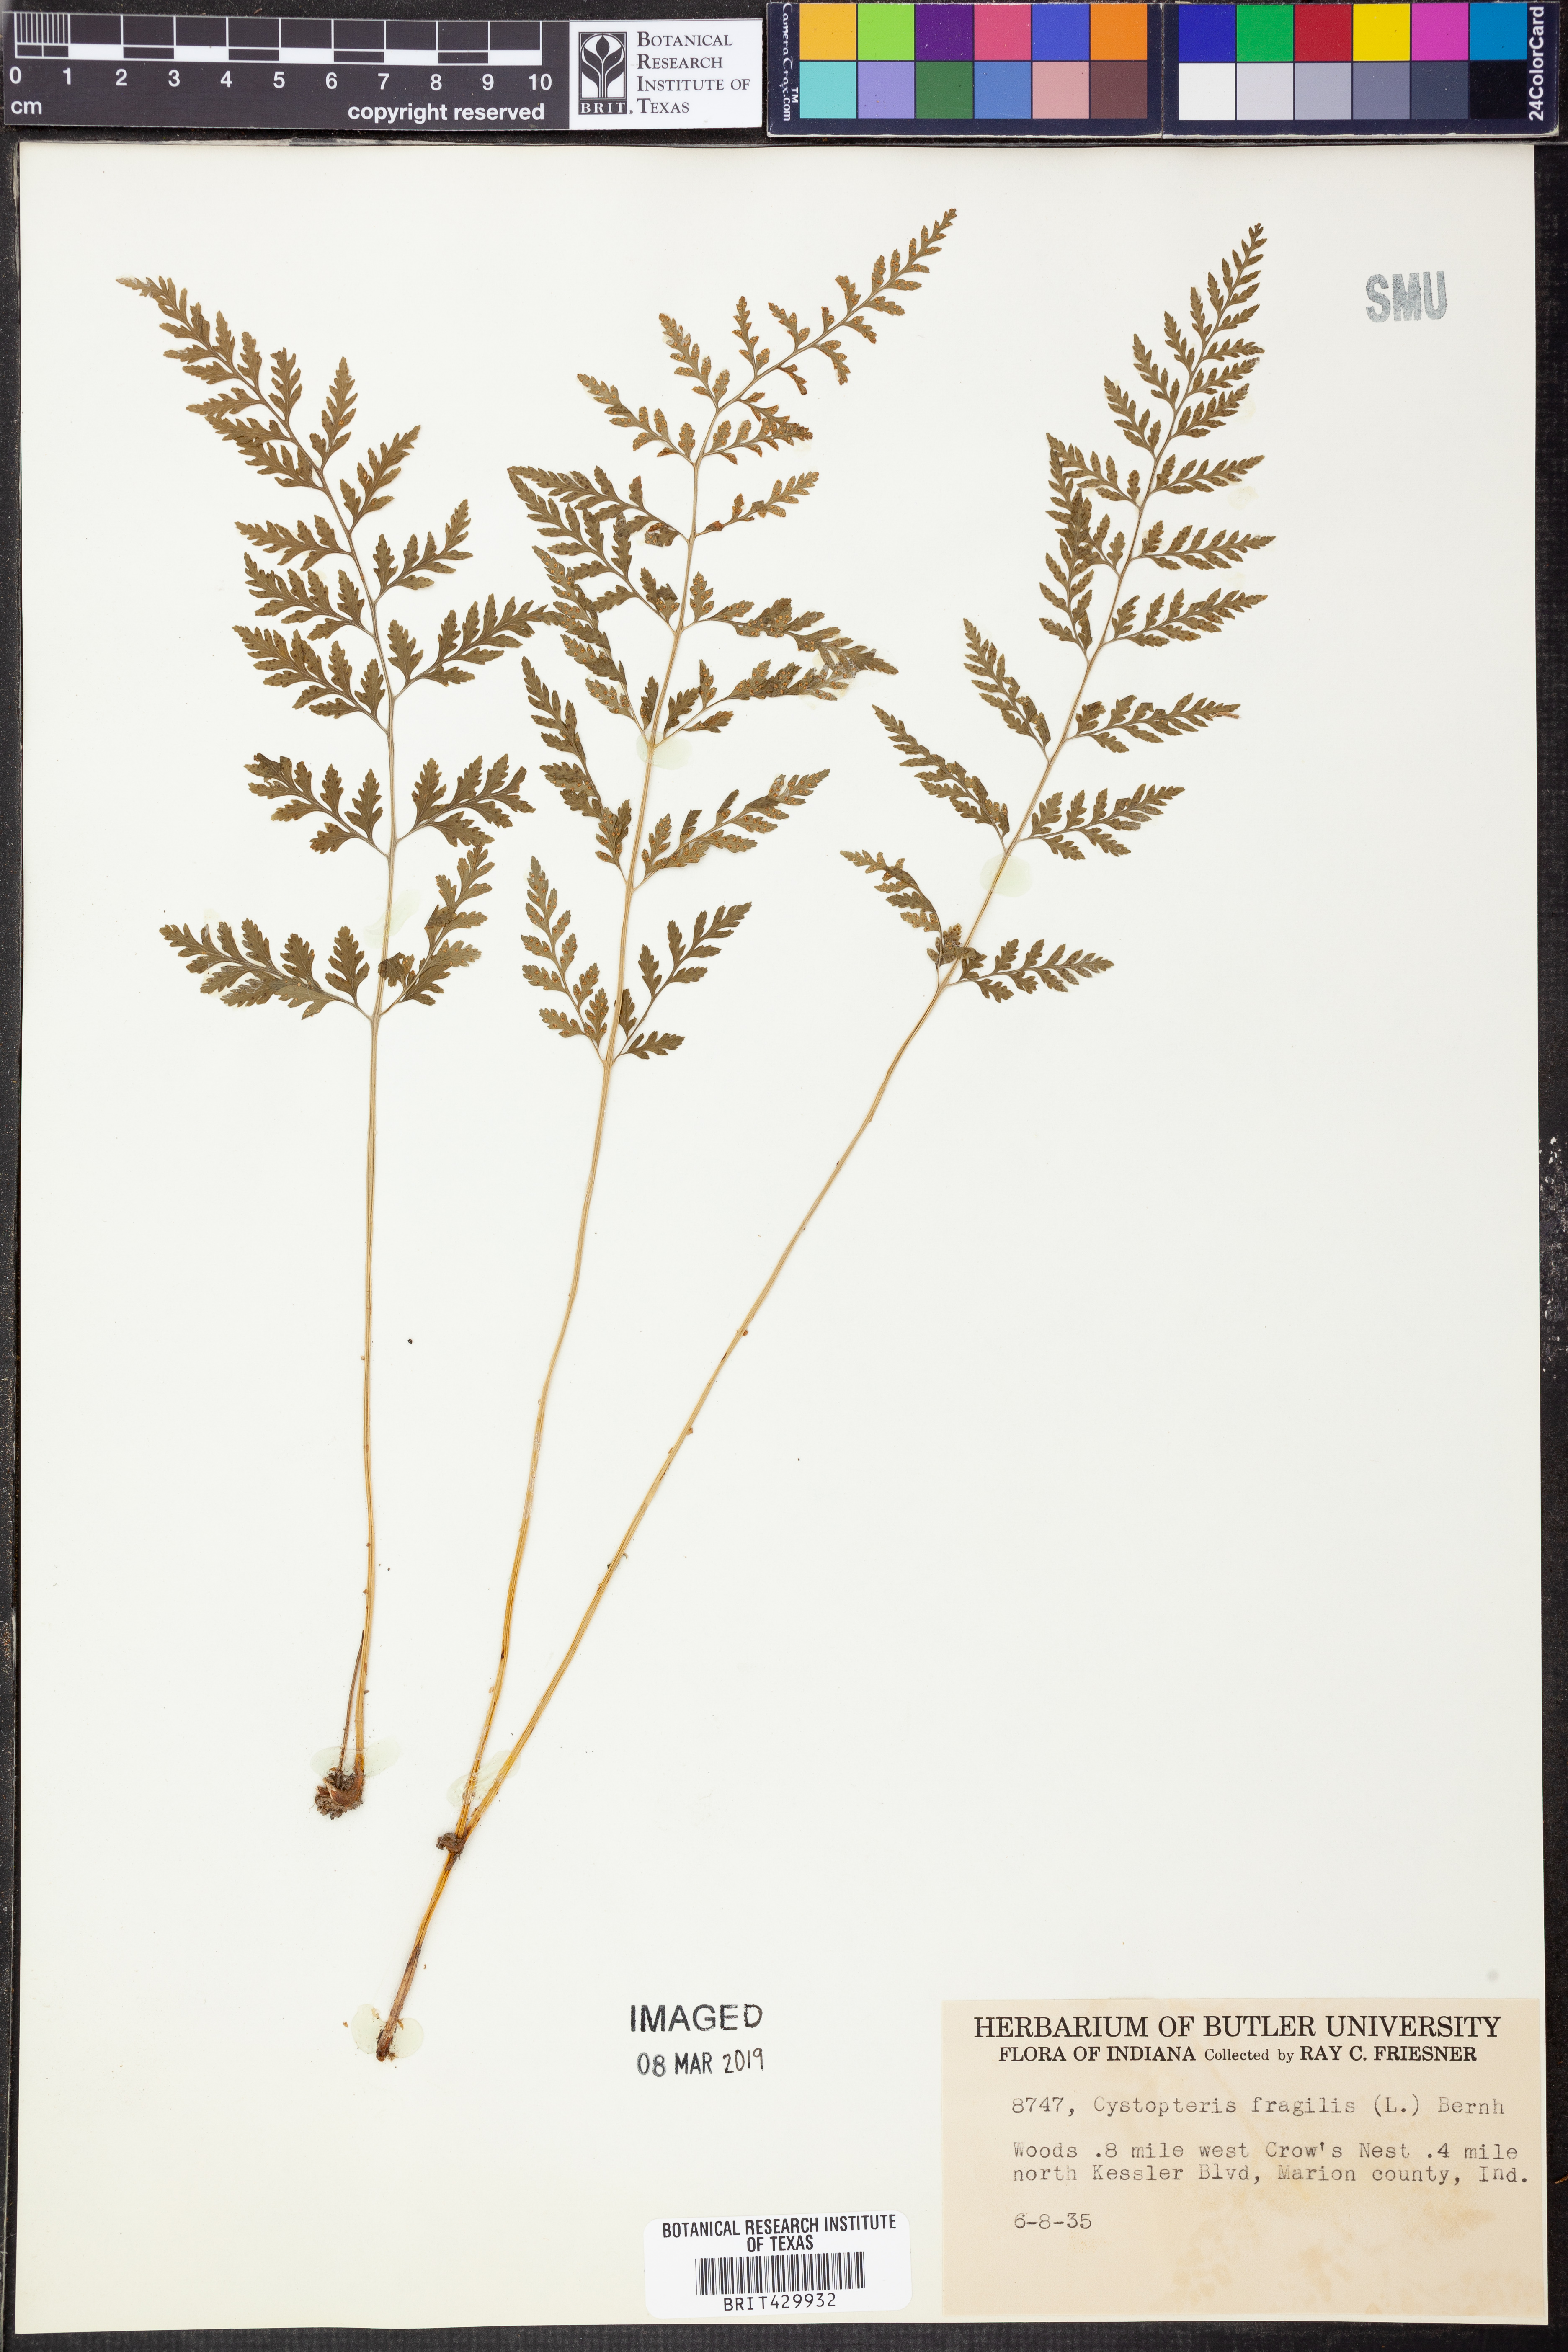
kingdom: Plantae
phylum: Tracheophyta
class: Polypodiopsida
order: Polypodiales
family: Cystopteridaceae
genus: Cystopteris
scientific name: Cystopteris fragilis
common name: Brittle bladder fern
